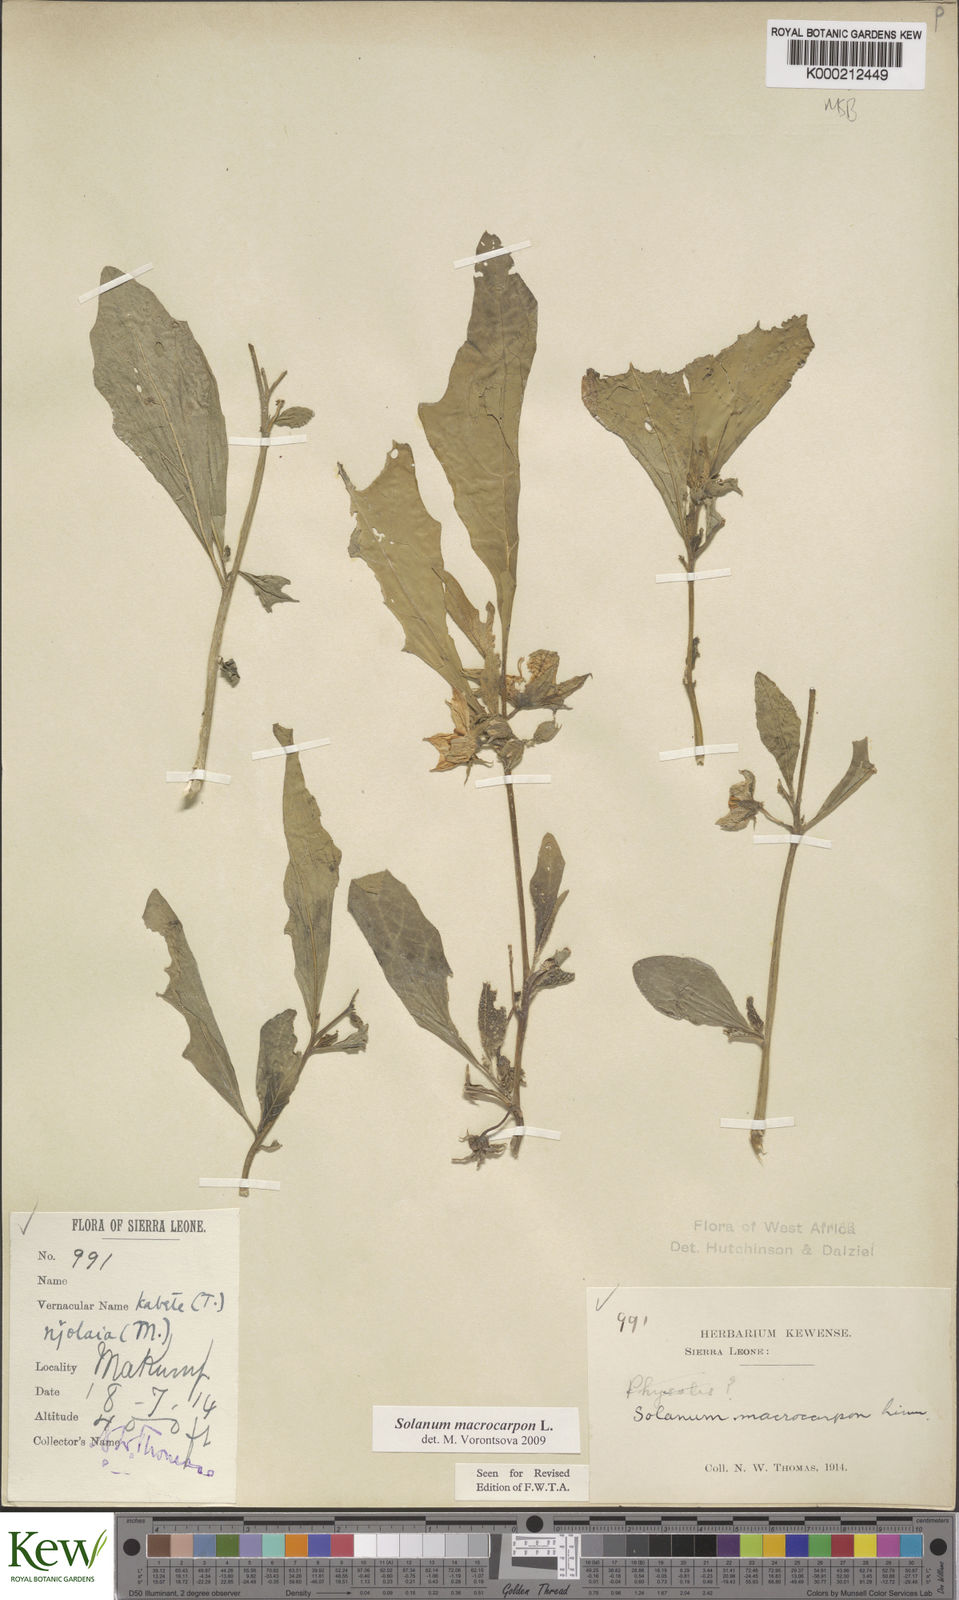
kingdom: Plantae
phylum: Tracheophyta
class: Magnoliopsida
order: Solanales
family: Solanaceae
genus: Solanum
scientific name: Solanum macrocarpon
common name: African eggplant
